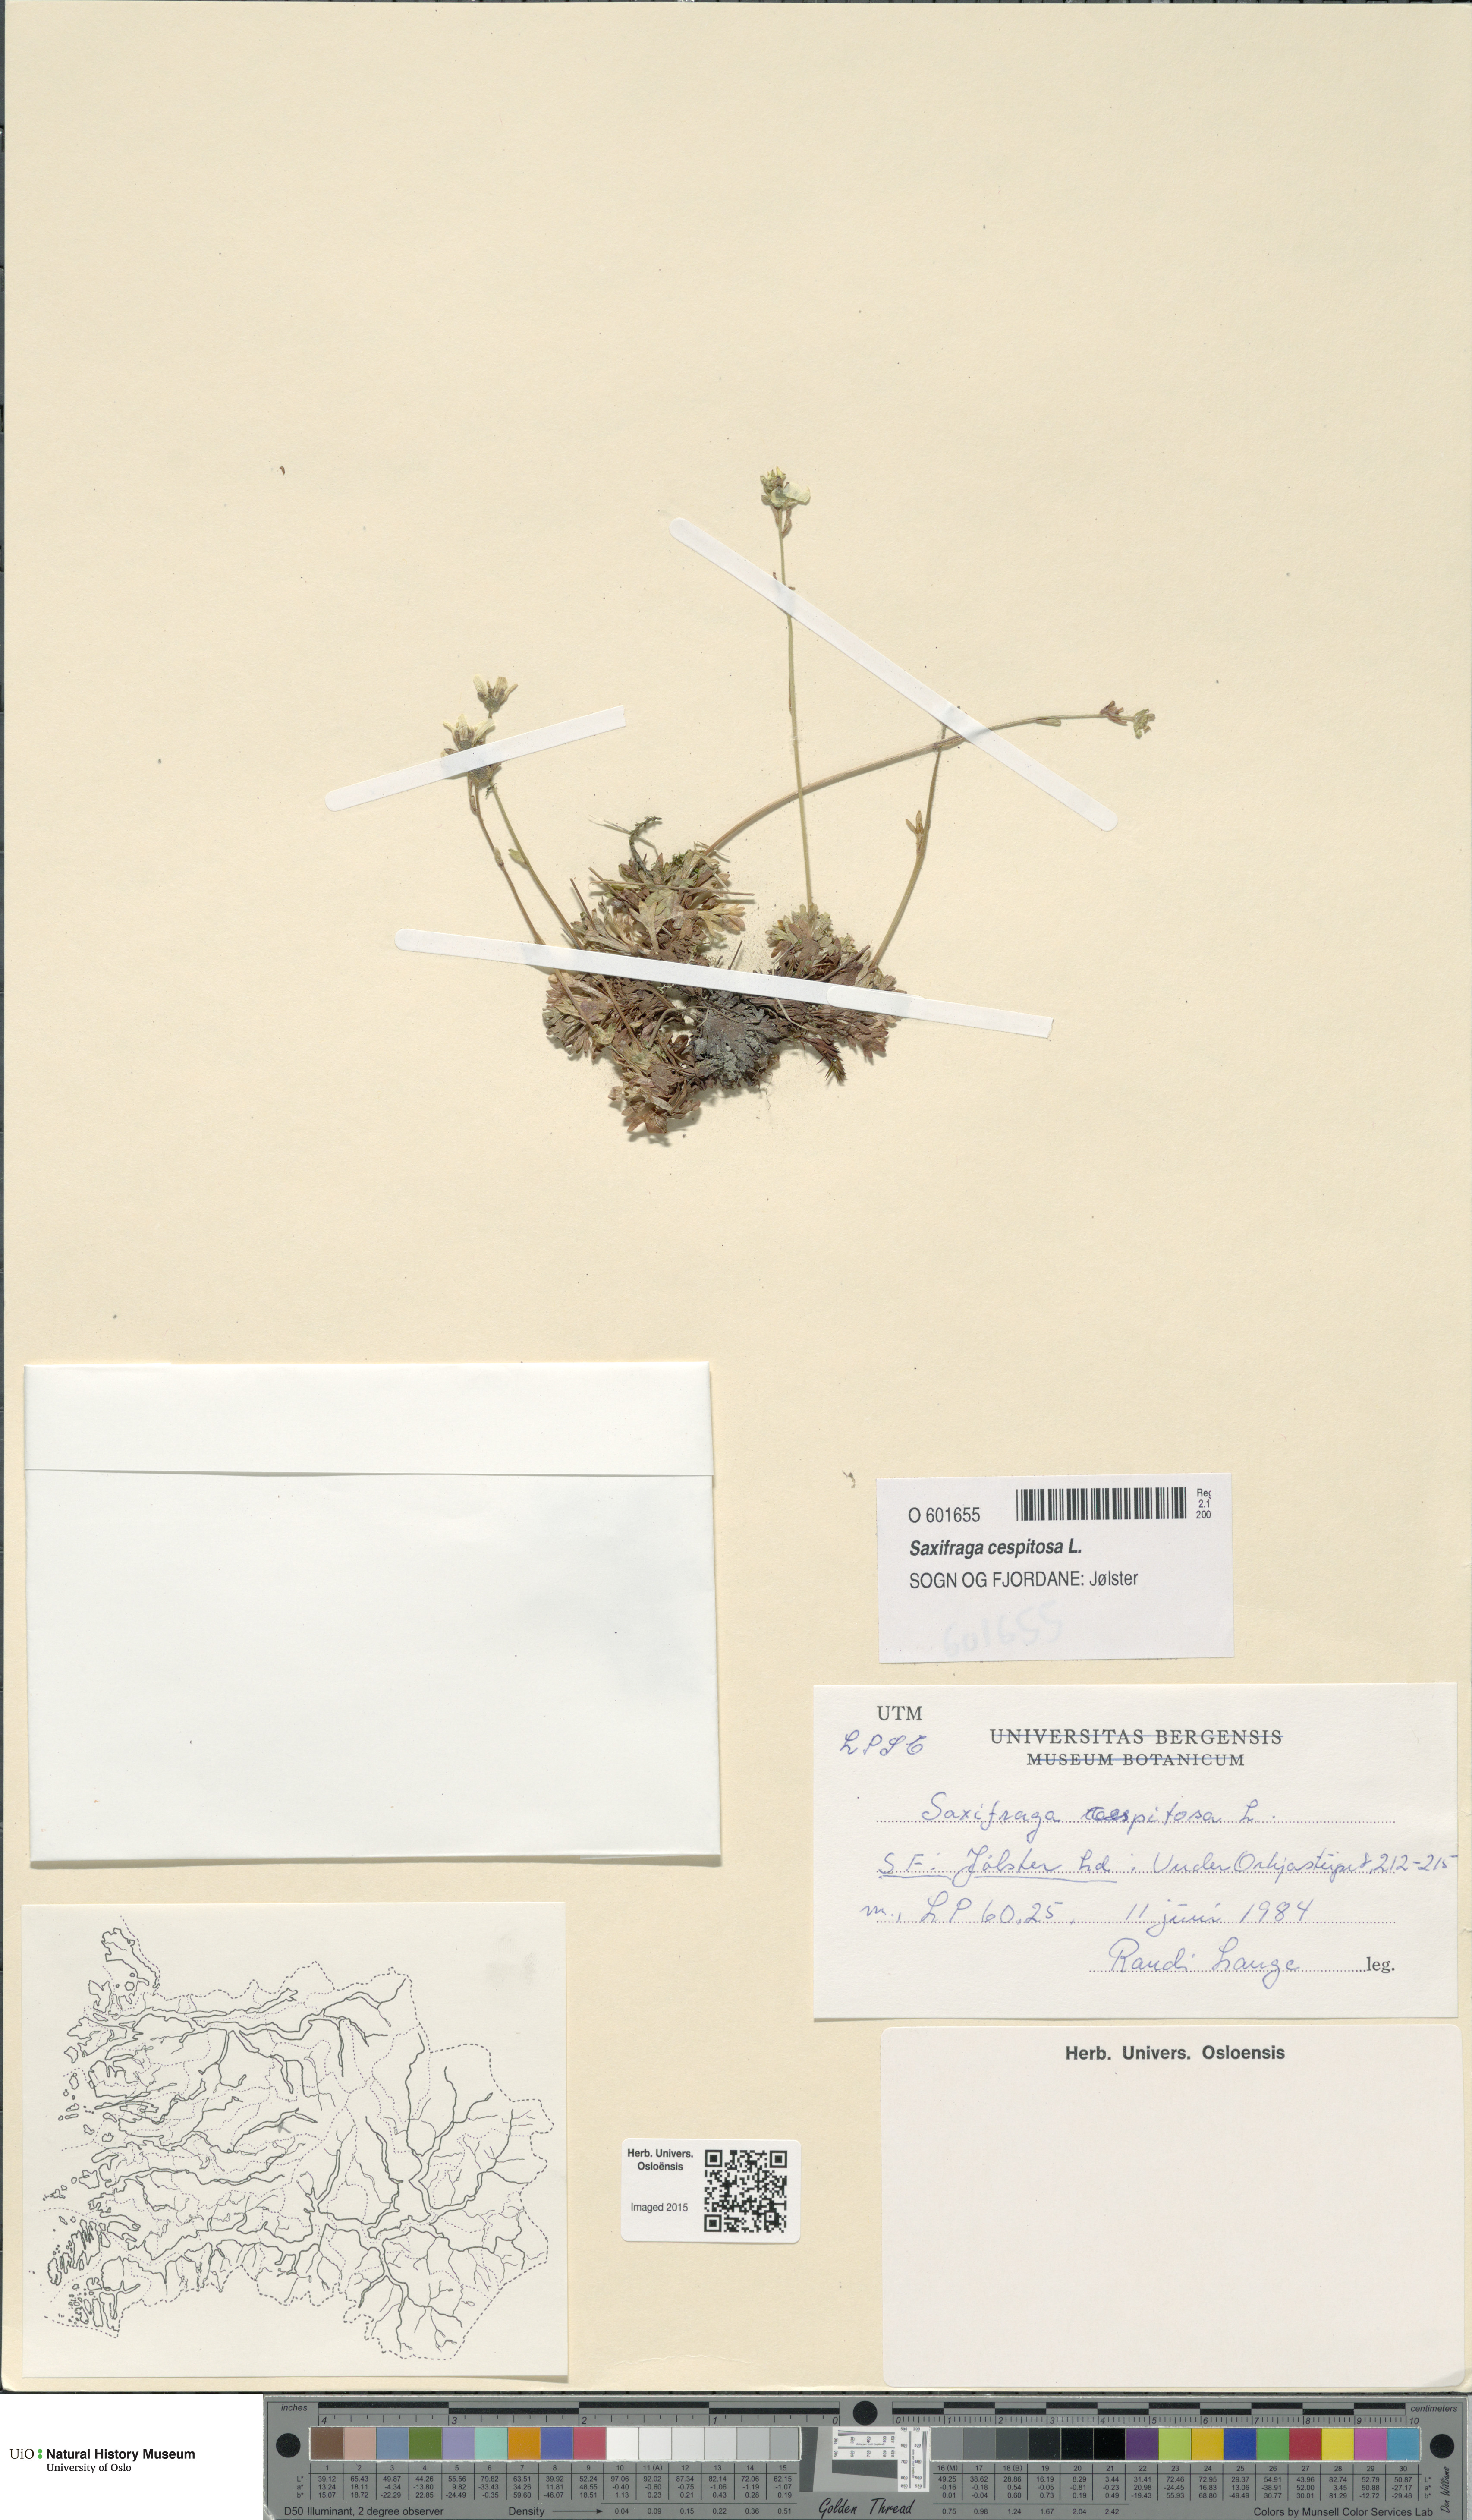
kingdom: Plantae
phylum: Tracheophyta
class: Magnoliopsida
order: Saxifragales
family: Saxifragaceae
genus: Saxifraga
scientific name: Saxifraga cespitosa
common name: Tufted saxifrage
